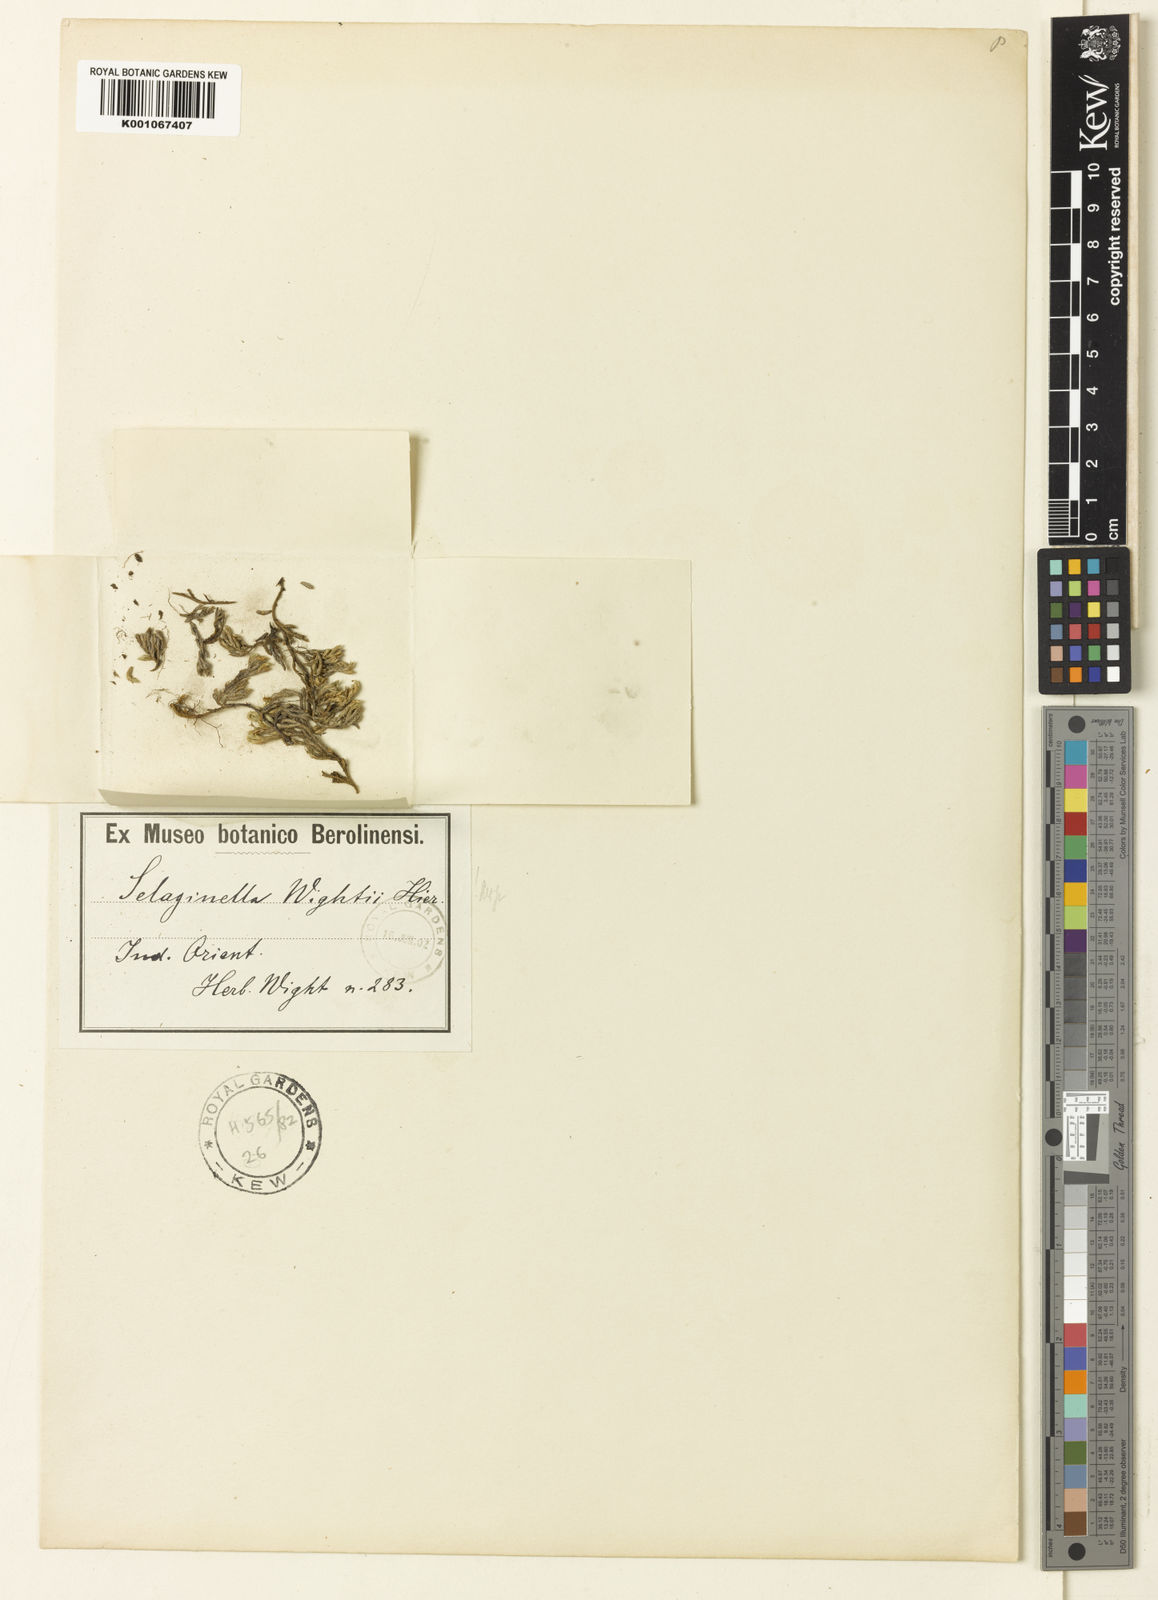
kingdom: Plantae
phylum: Tracheophyta
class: Lycopodiopsida
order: Selaginellales
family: Selaginellaceae
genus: Selaginella
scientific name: Selaginella wightii
